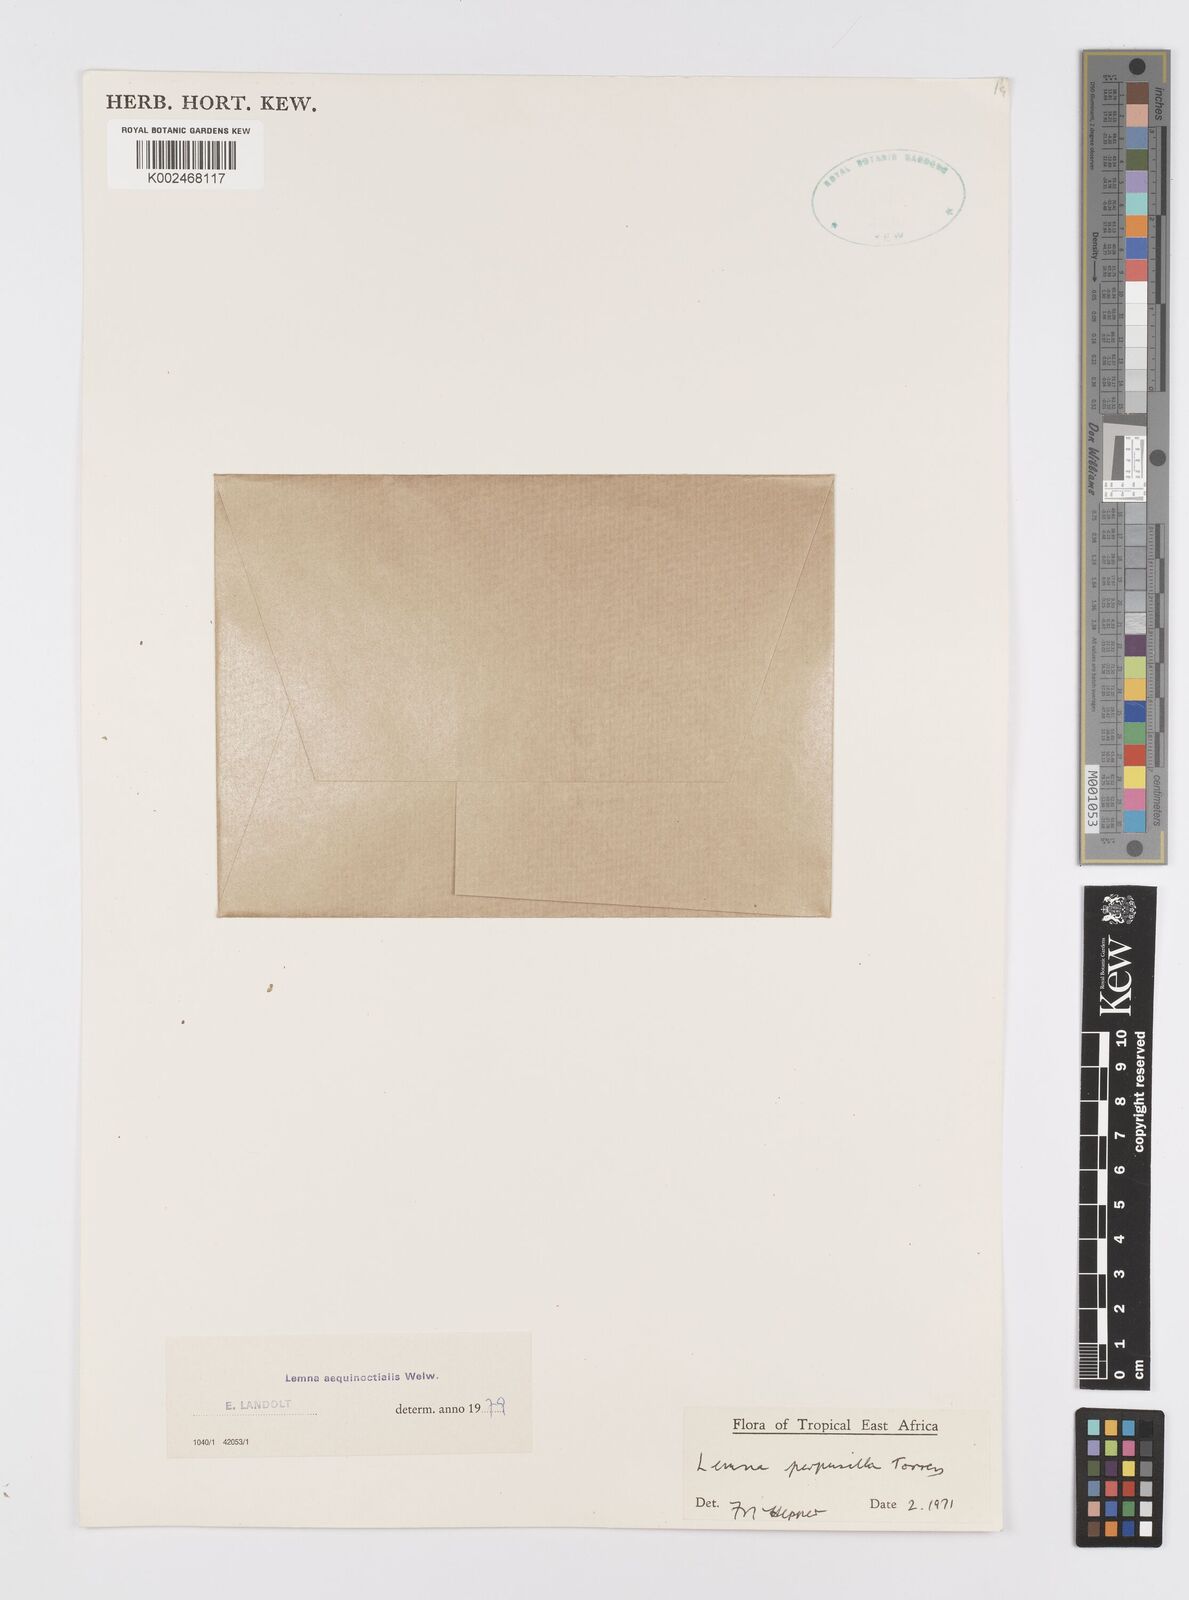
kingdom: Plantae
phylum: Tracheophyta
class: Liliopsida
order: Alismatales
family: Araceae
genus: Lemna
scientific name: Lemna aequinoctialis
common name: Duckweed
